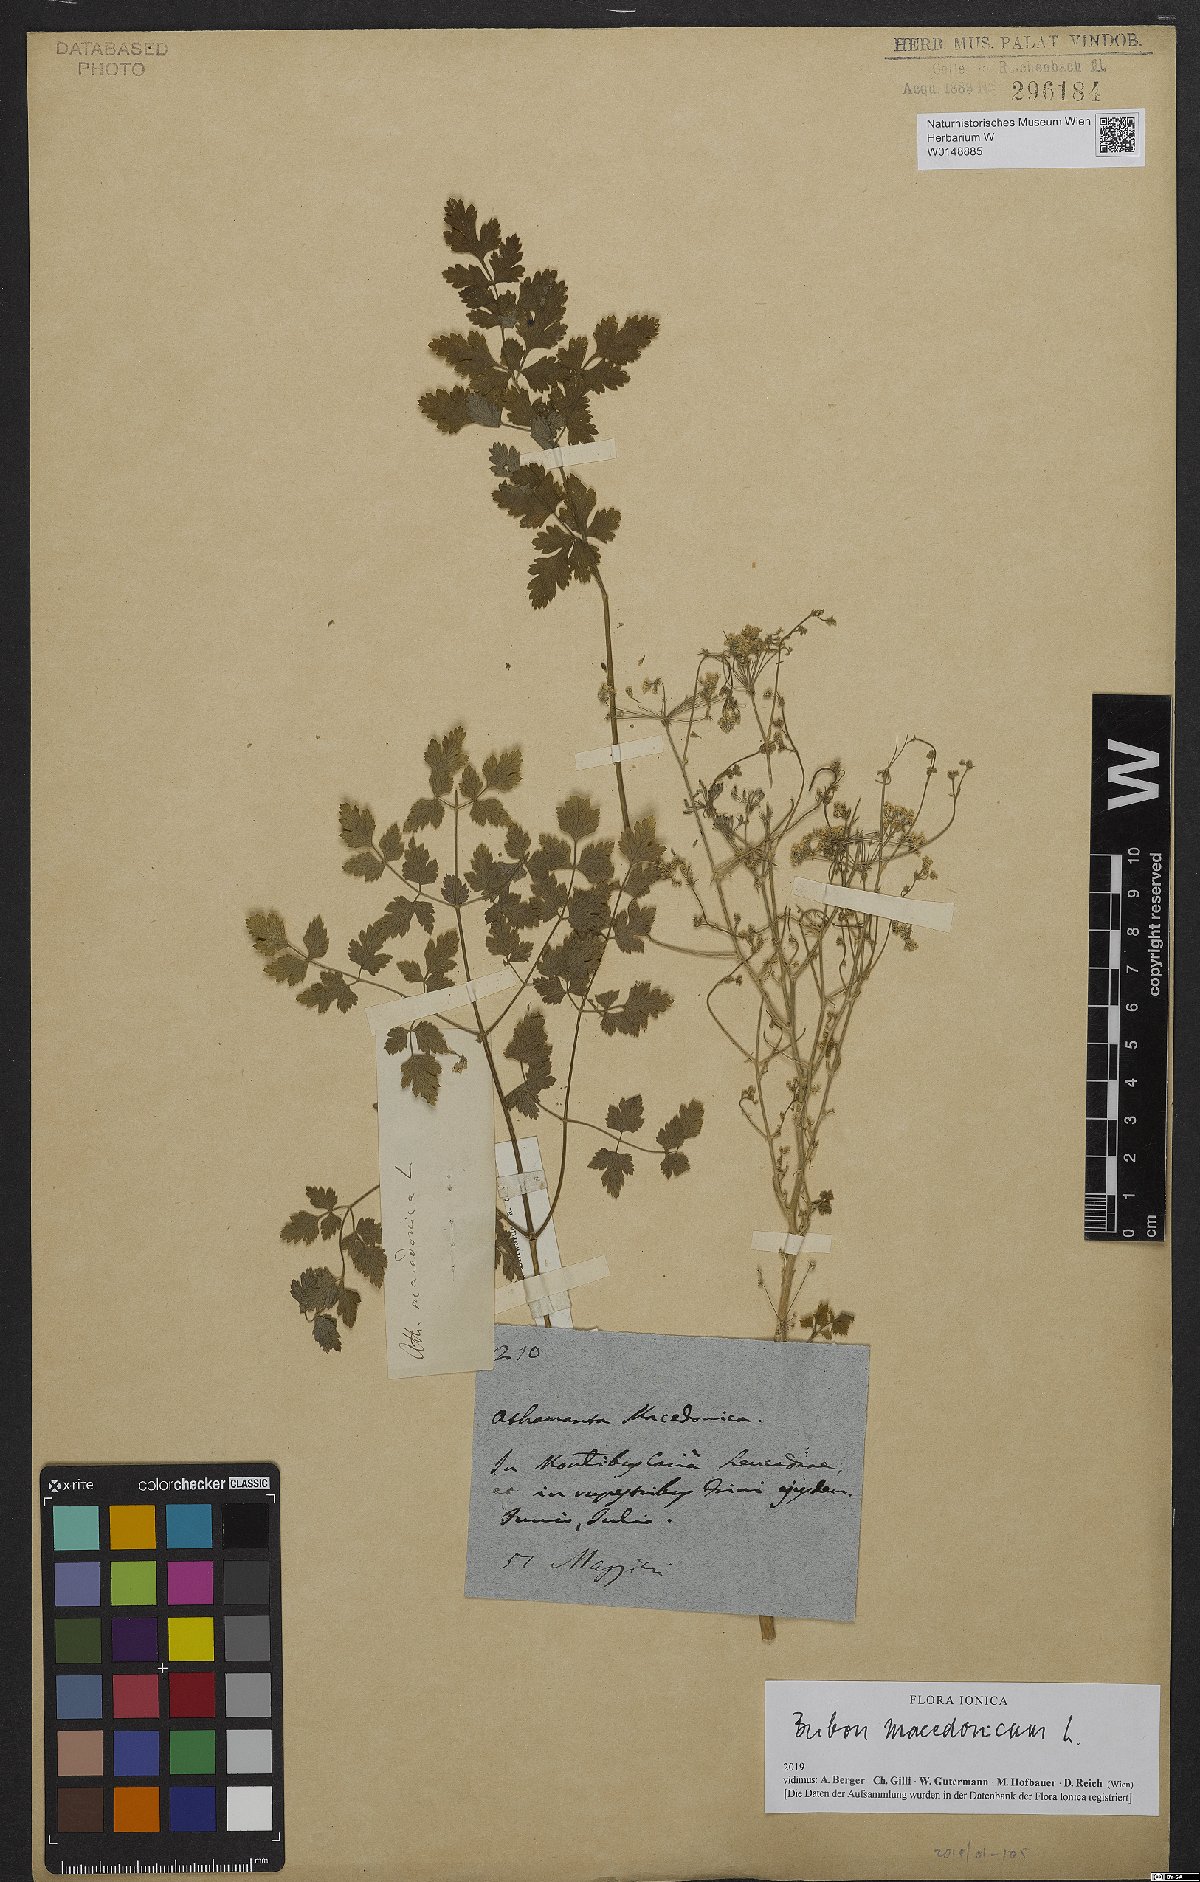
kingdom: Plantae
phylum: Tracheophyta
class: Magnoliopsida
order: Apiales
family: Apiaceae
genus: Bubon
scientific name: Bubon macedonicum
